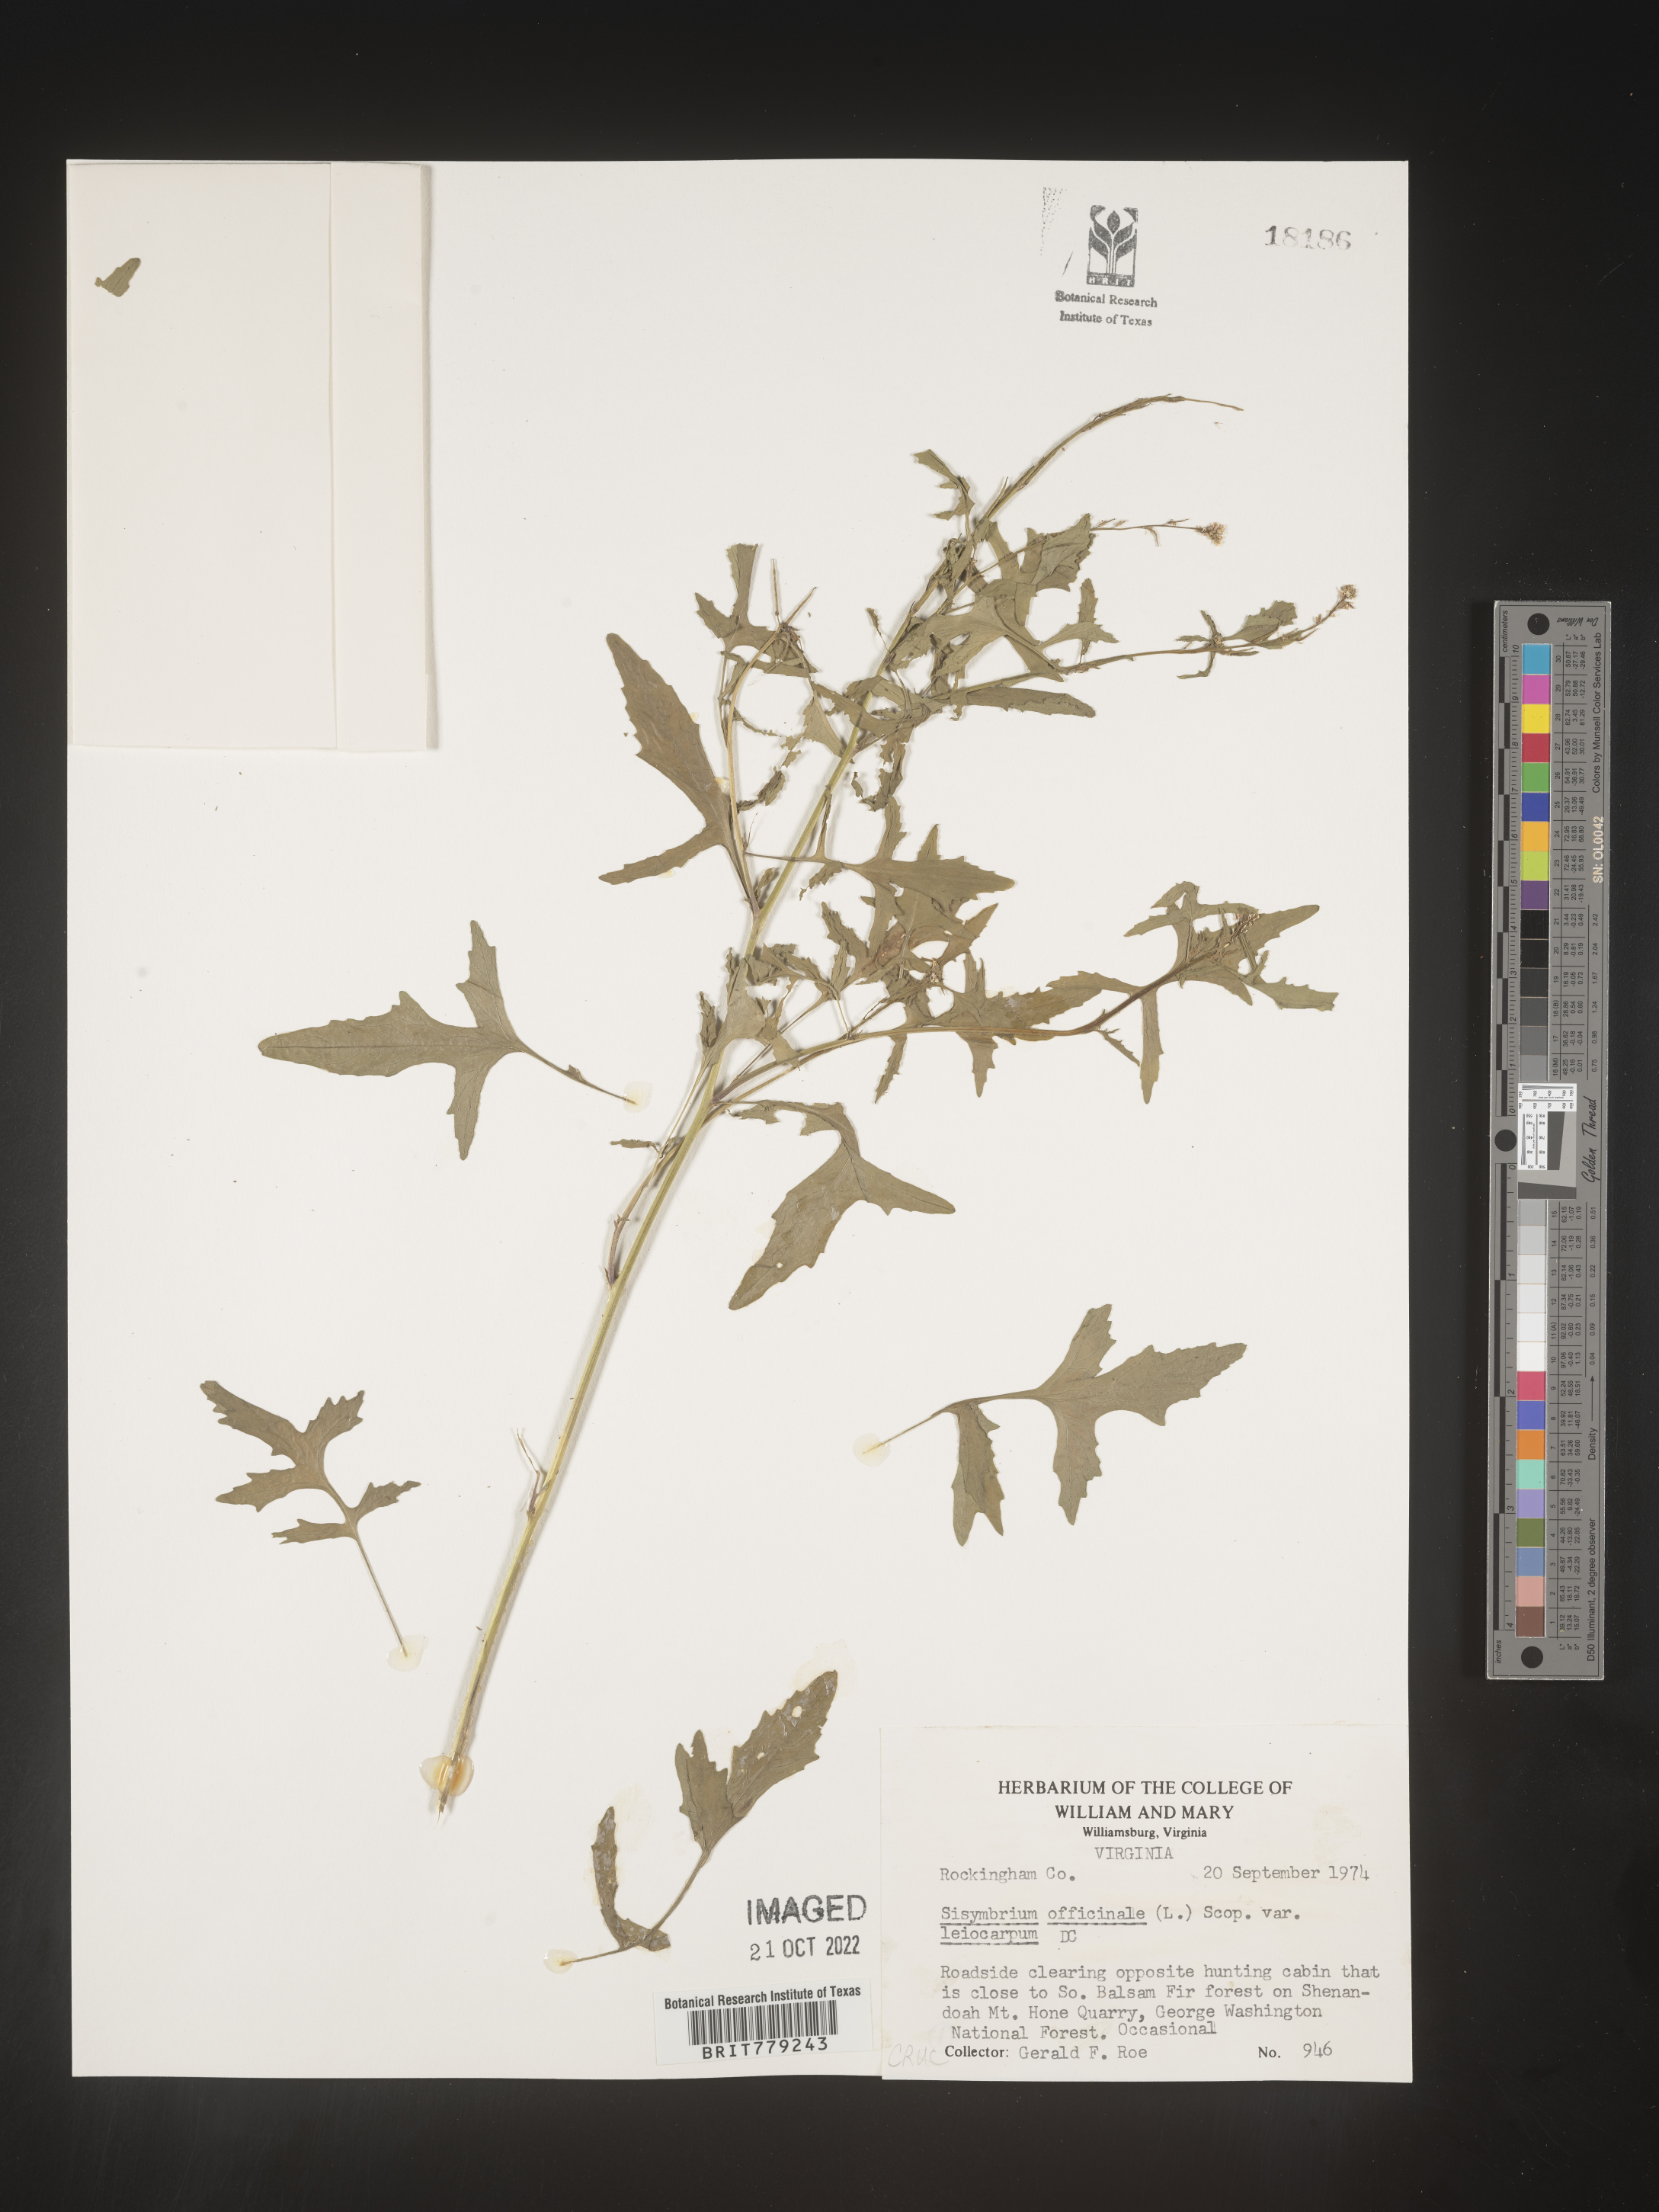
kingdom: Plantae
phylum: Tracheophyta
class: Magnoliopsida
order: Brassicales
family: Brassicaceae
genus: Sisymbrium
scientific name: Sisymbrium officinale
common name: Hedge mustard
